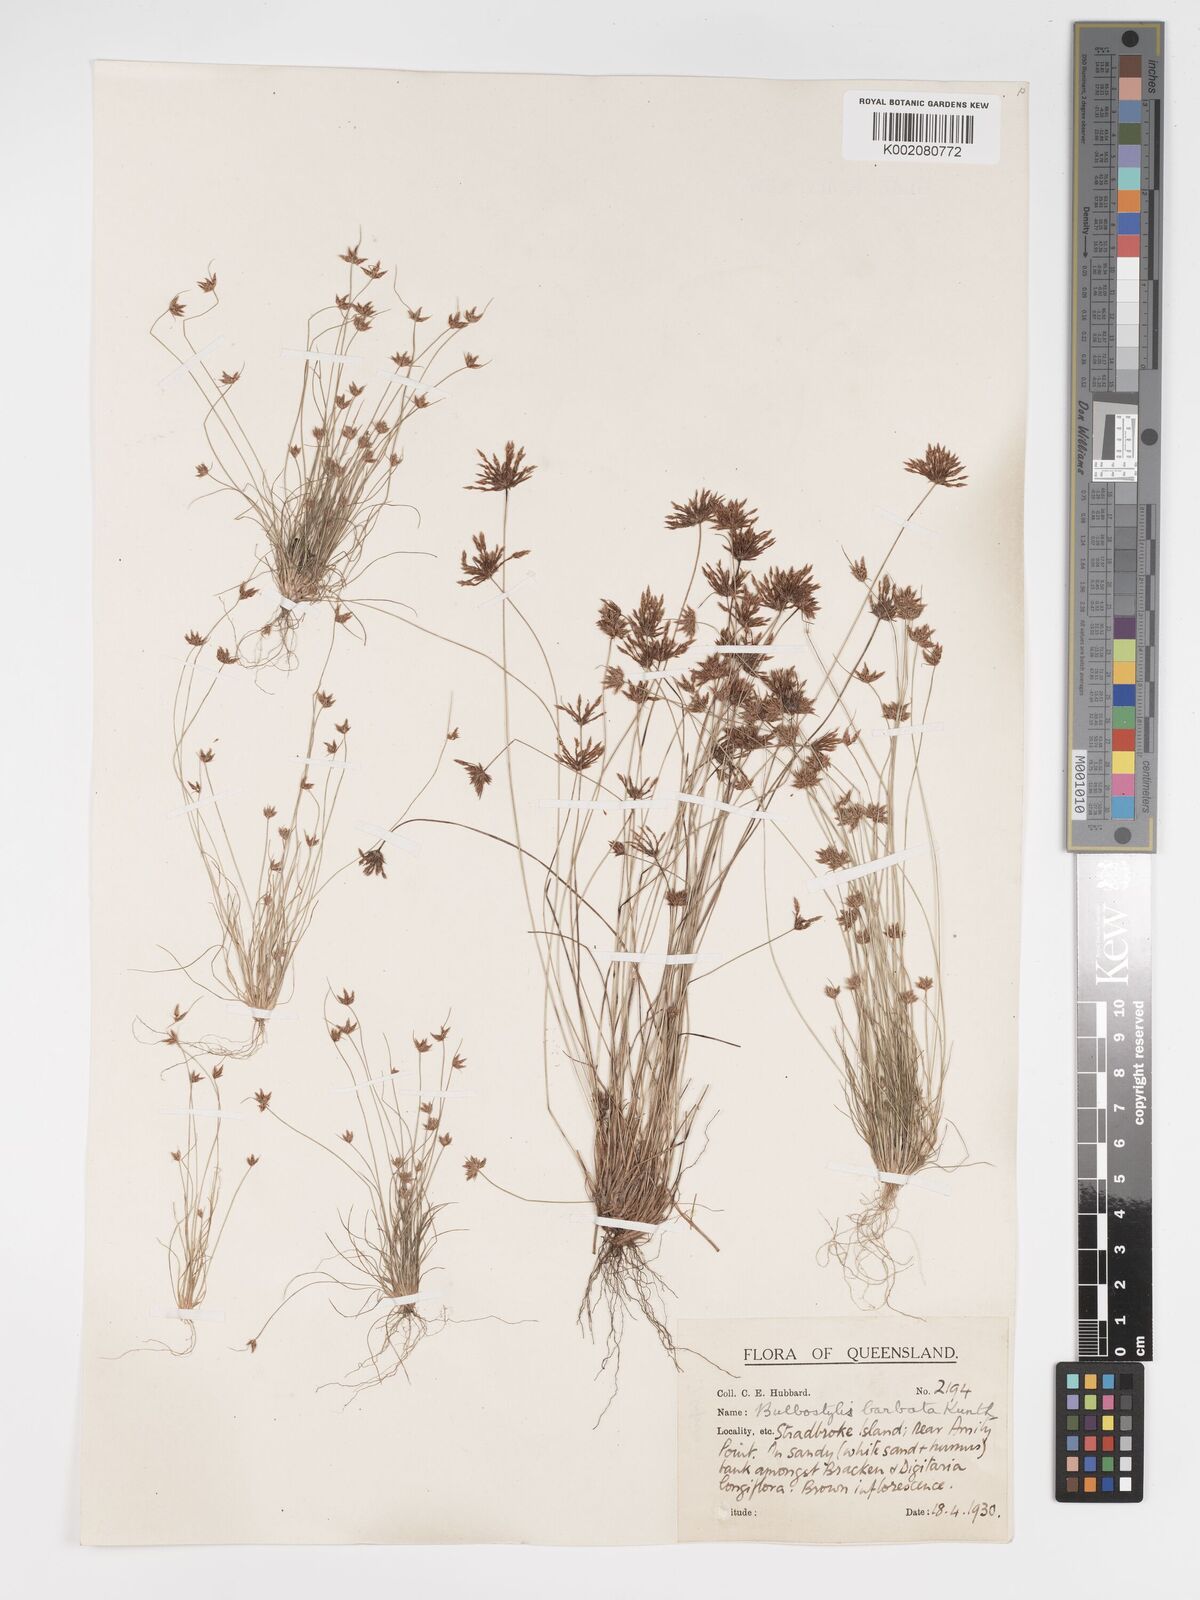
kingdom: Plantae
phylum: Tracheophyta
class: Liliopsida
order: Poales
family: Cyperaceae
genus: Bulbostylis
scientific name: Bulbostylis barbata
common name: Watergrass
